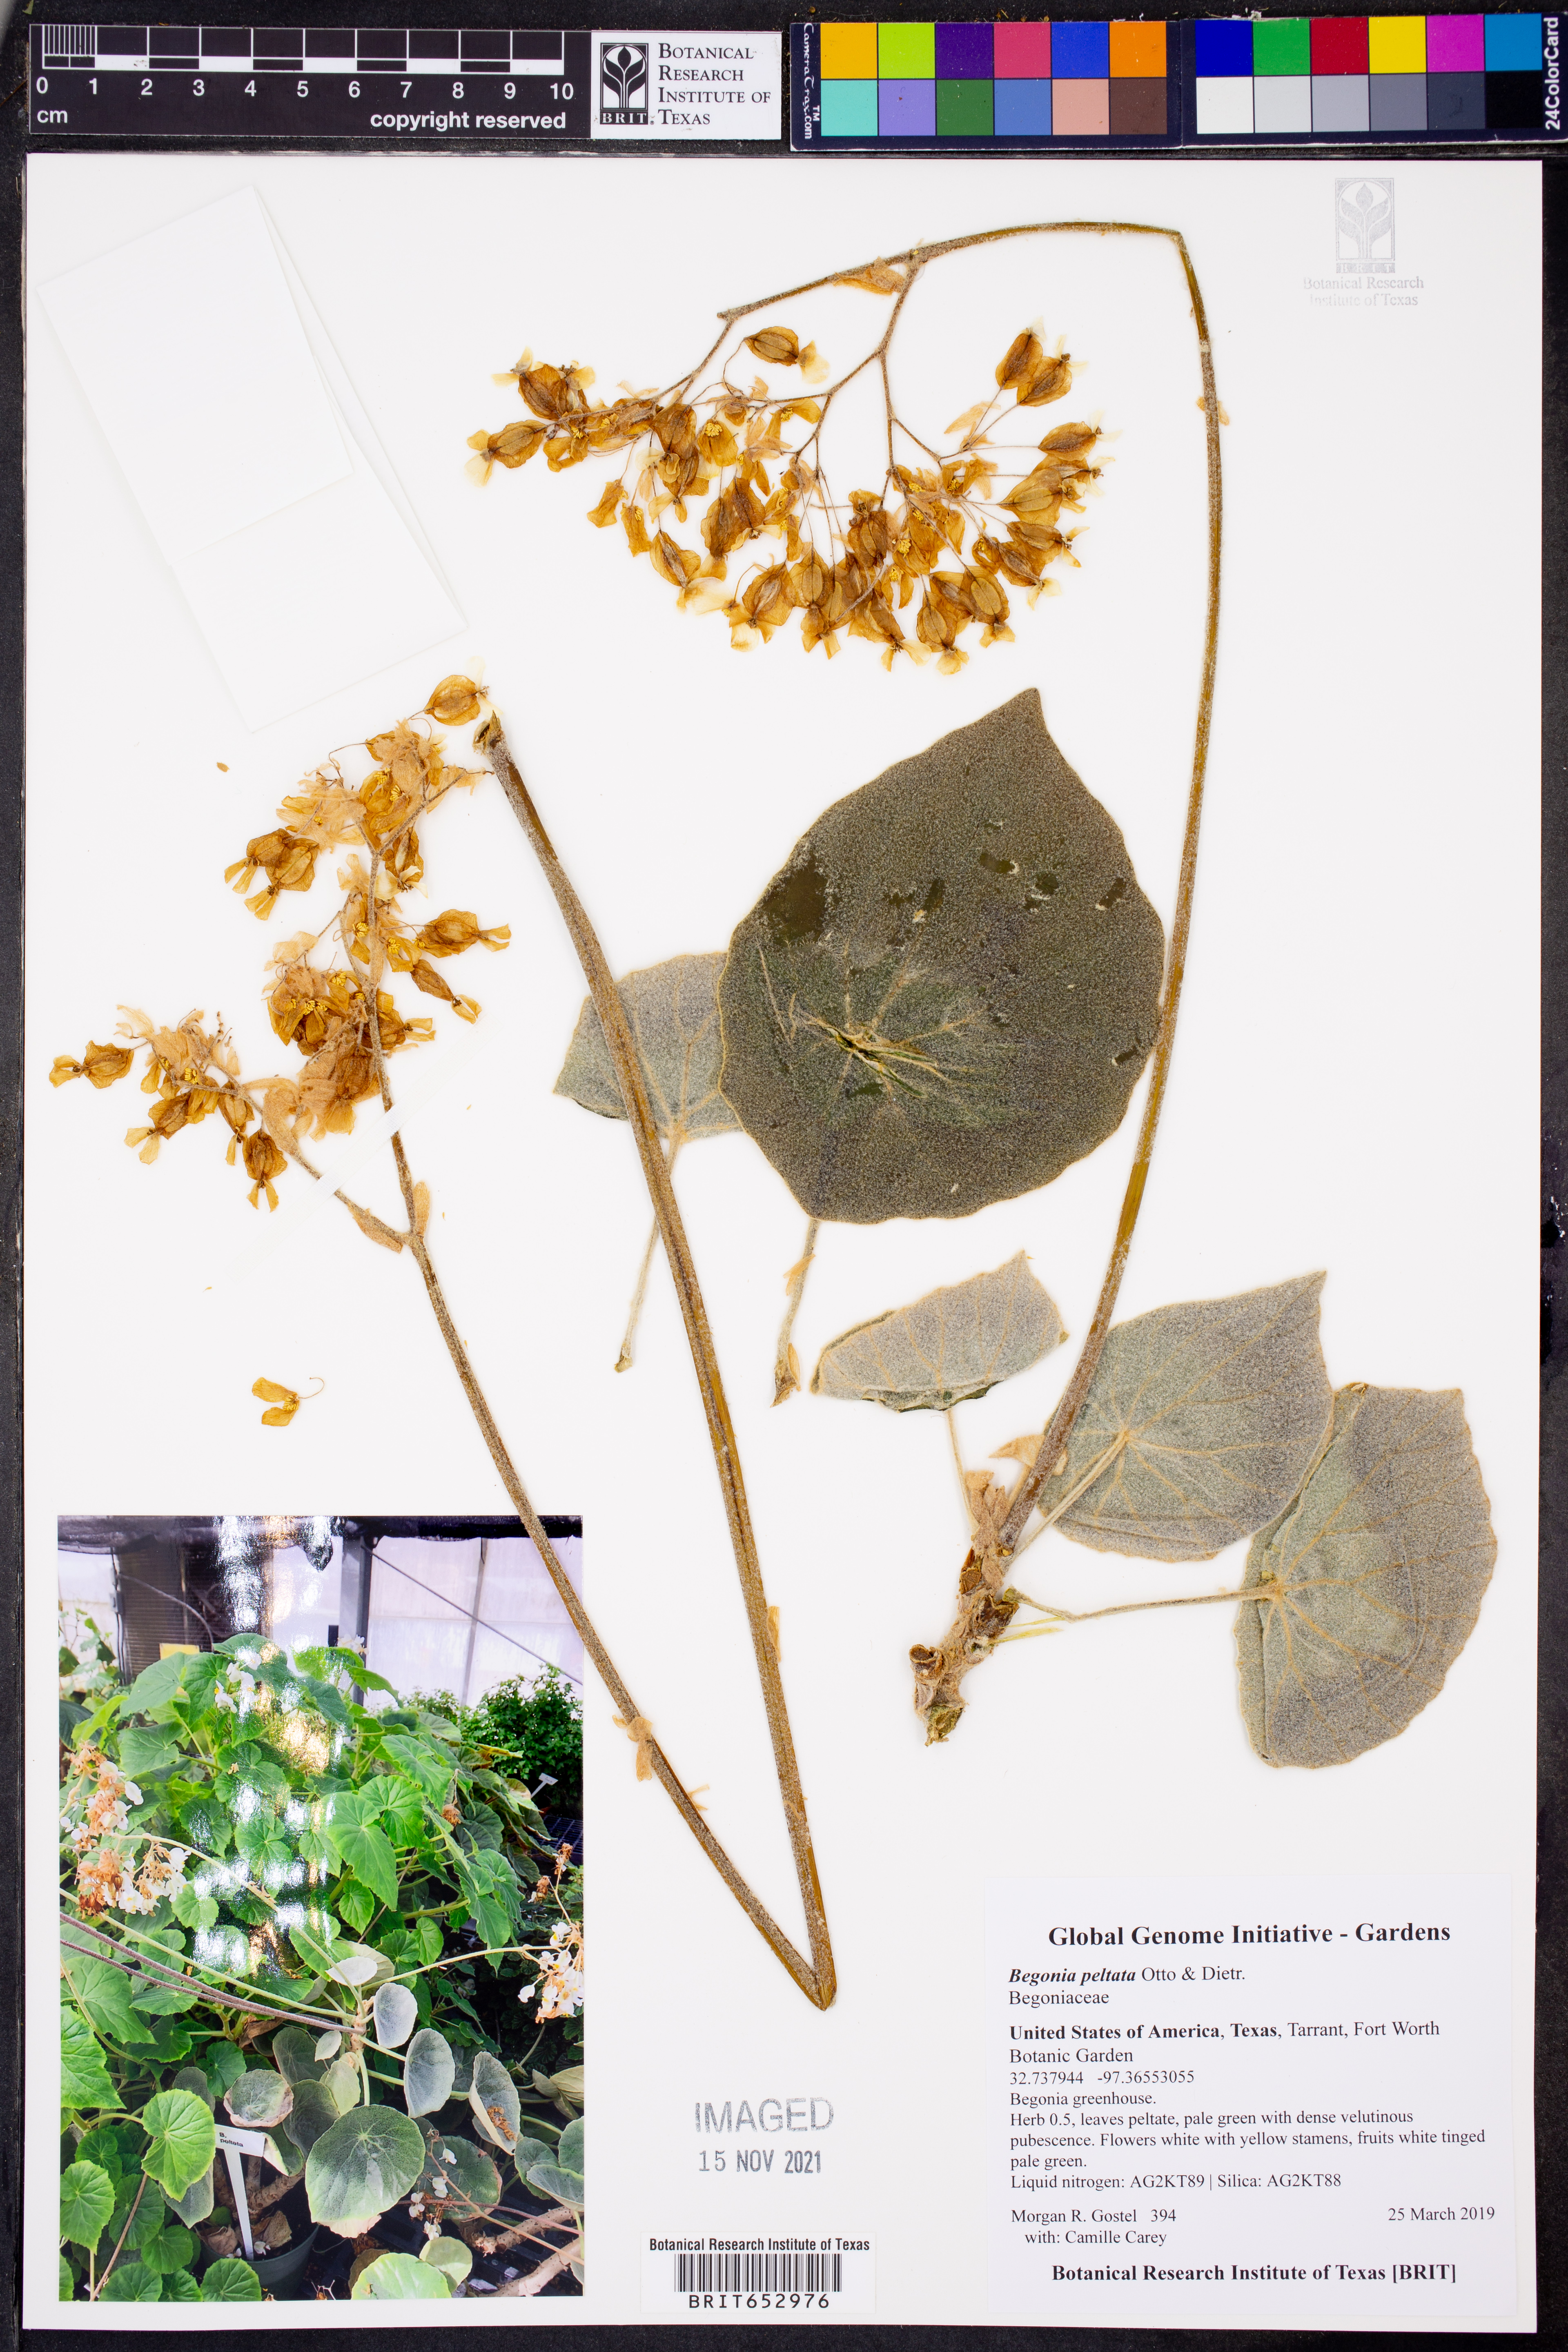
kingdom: Plantae
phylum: Tracheophyta
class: Magnoliopsida
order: Cucurbitales
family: Begoniaceae
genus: Begonia
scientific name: Begonia peltata
